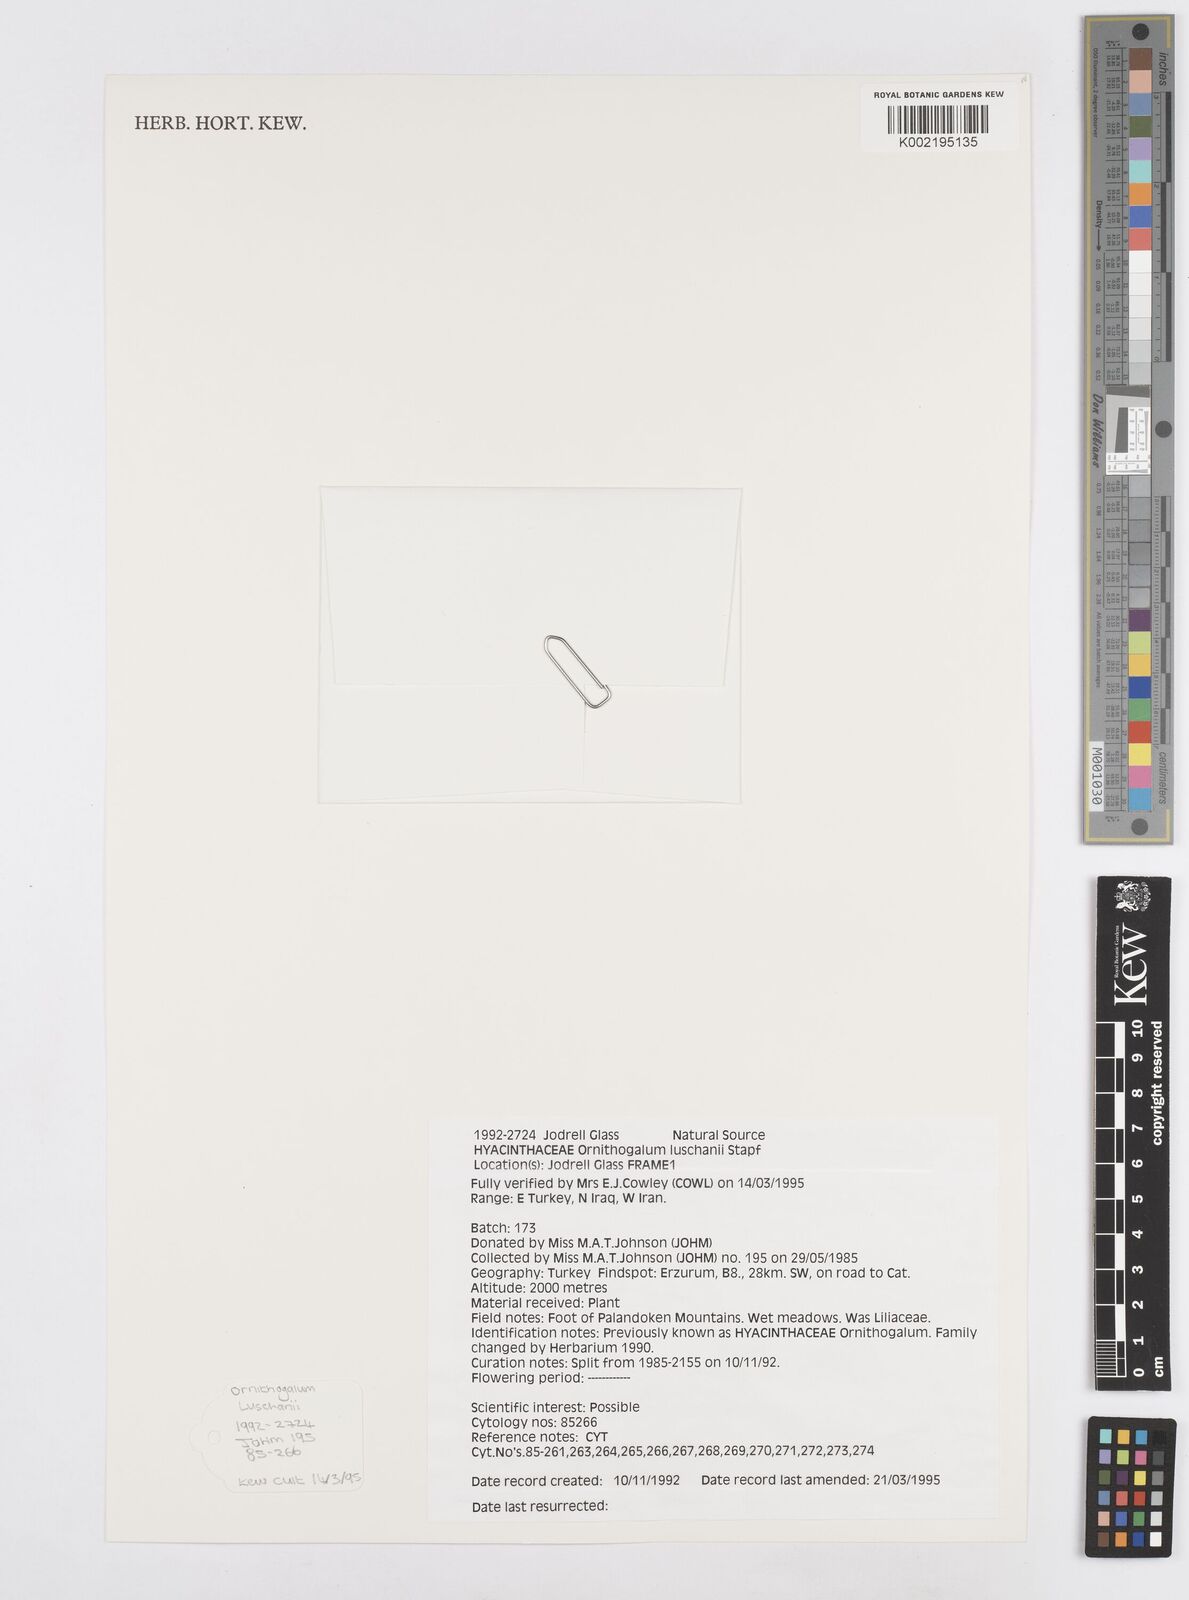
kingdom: Plantae
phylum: Tracheophyta
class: Liliopsida
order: Asparagales
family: Asparagaceae
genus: Ornithogalum
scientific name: Ornithogalum luschanii
